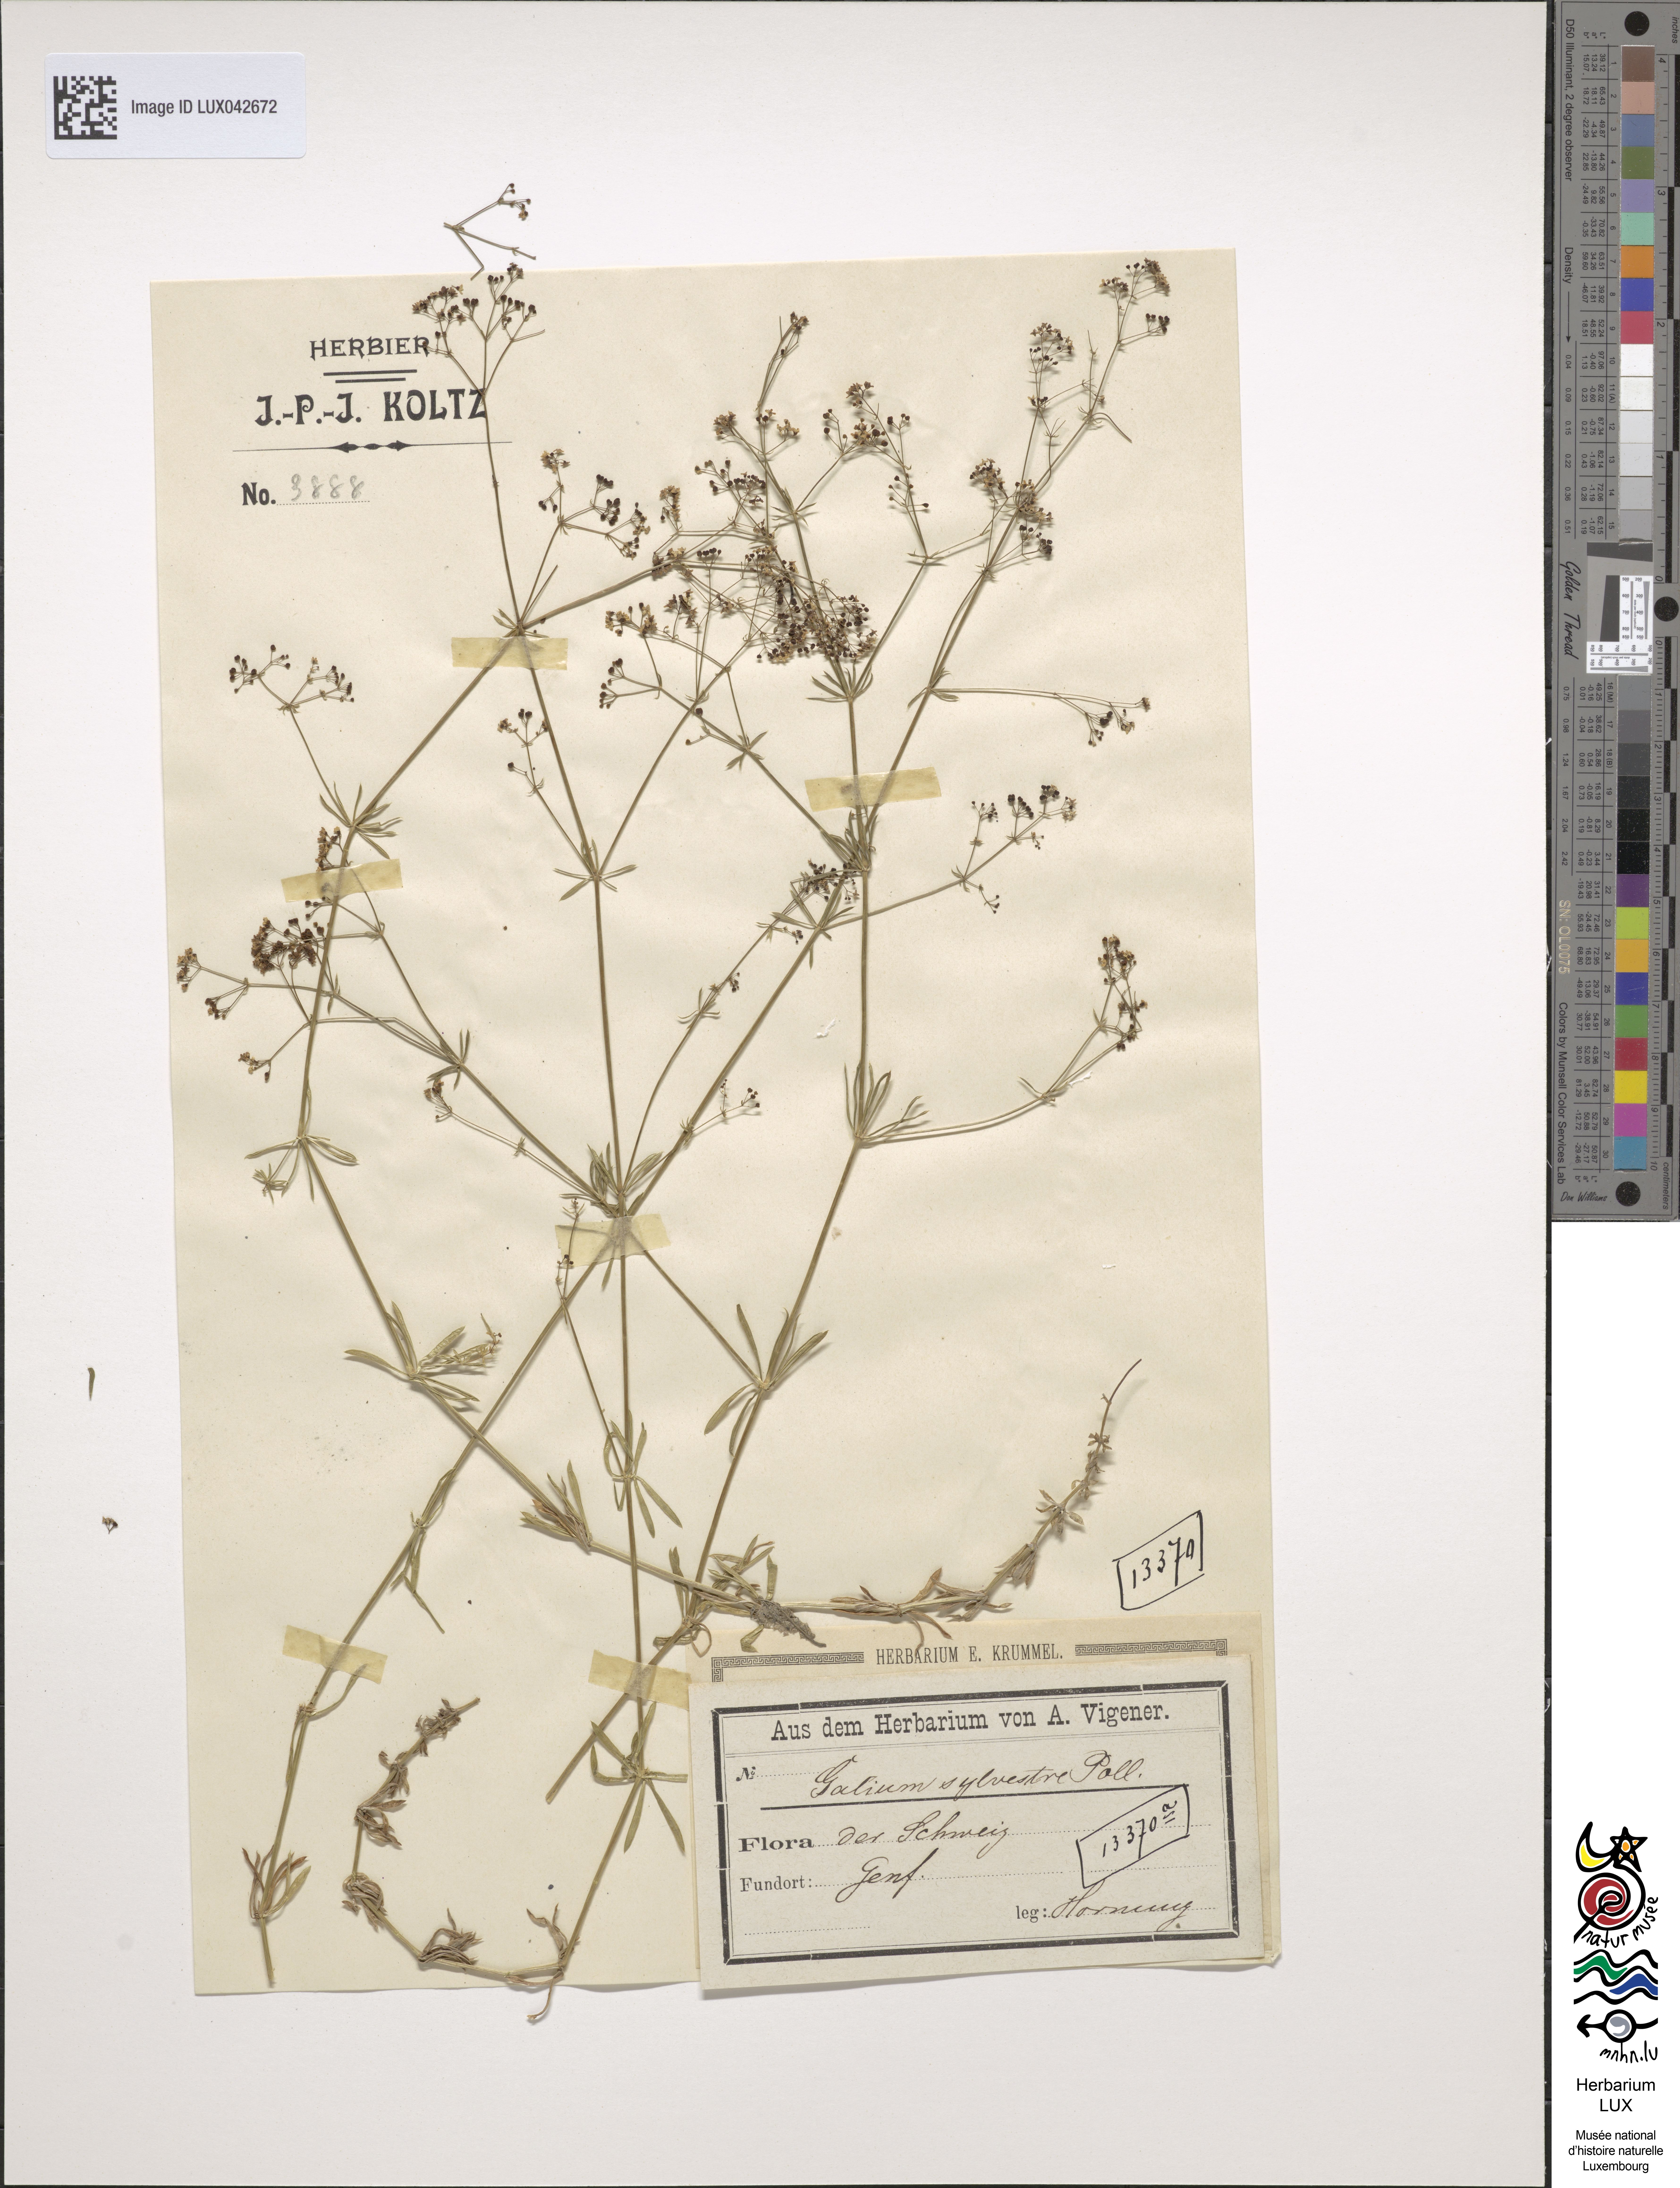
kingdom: Plantae
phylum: Tracheophyta
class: Magnoliopsida
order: Gentianales
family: Rubiaceae
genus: Galium
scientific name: Galium pumilum
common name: Slender bedstraw
